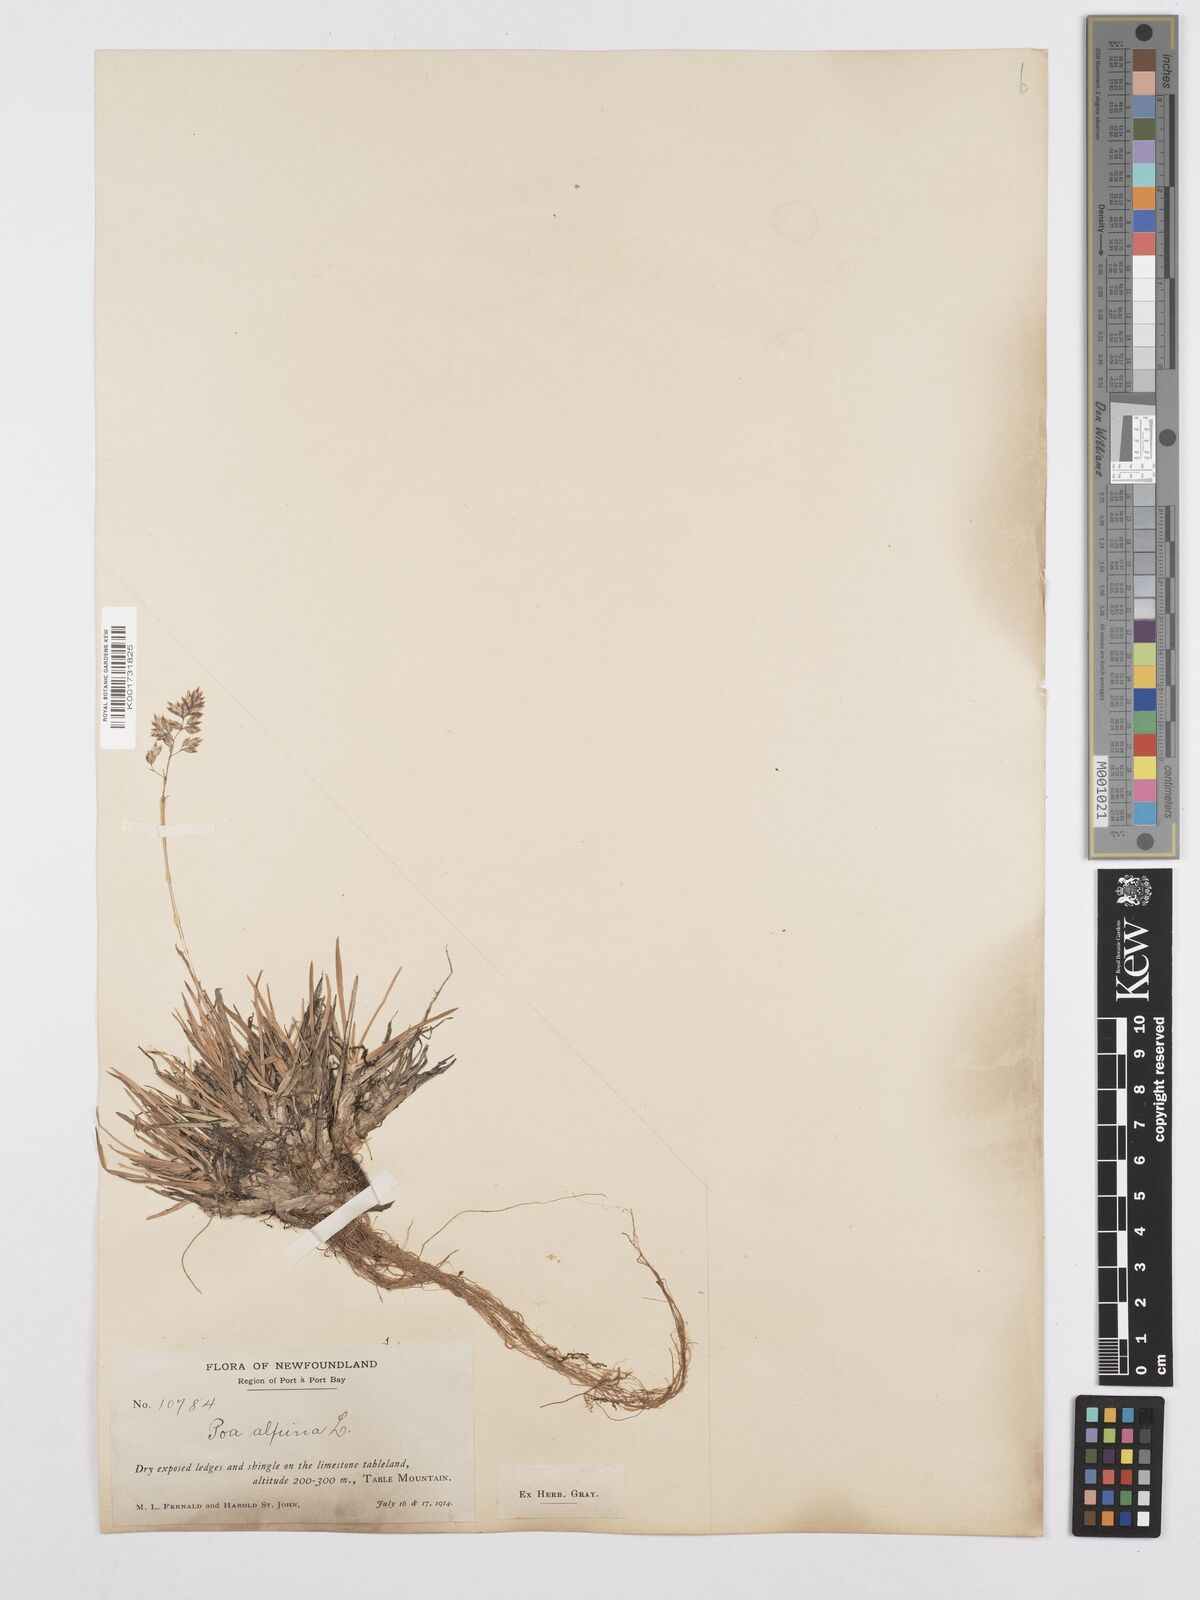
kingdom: Plantae
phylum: Tracheophyta
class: Liliopsida
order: Poales
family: Poaceae
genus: Poa
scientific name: Poa alpina
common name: Alpine bluegrass
